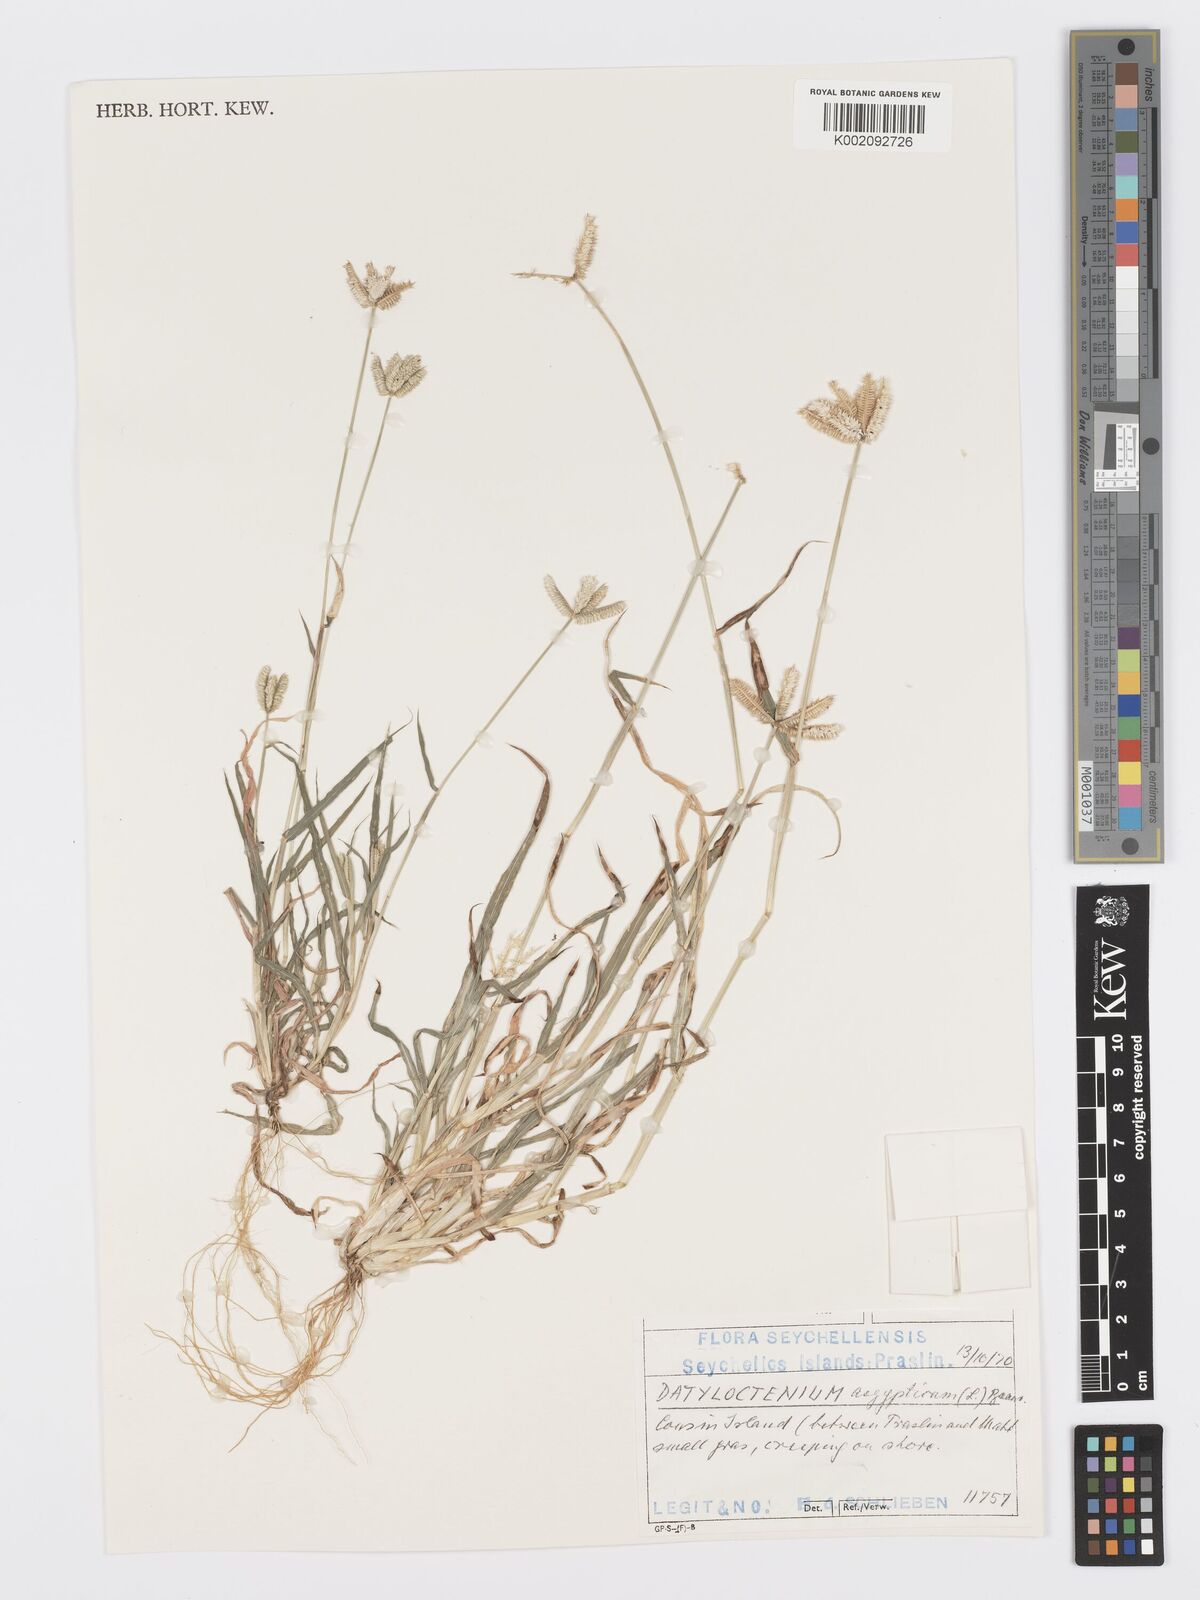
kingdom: Plantae
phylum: Tracheophyta
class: Liliopsida
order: Poales
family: Poaceae
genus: Dactyloctenium
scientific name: Dactyloctenium aegyptium
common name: Egyptian grass
